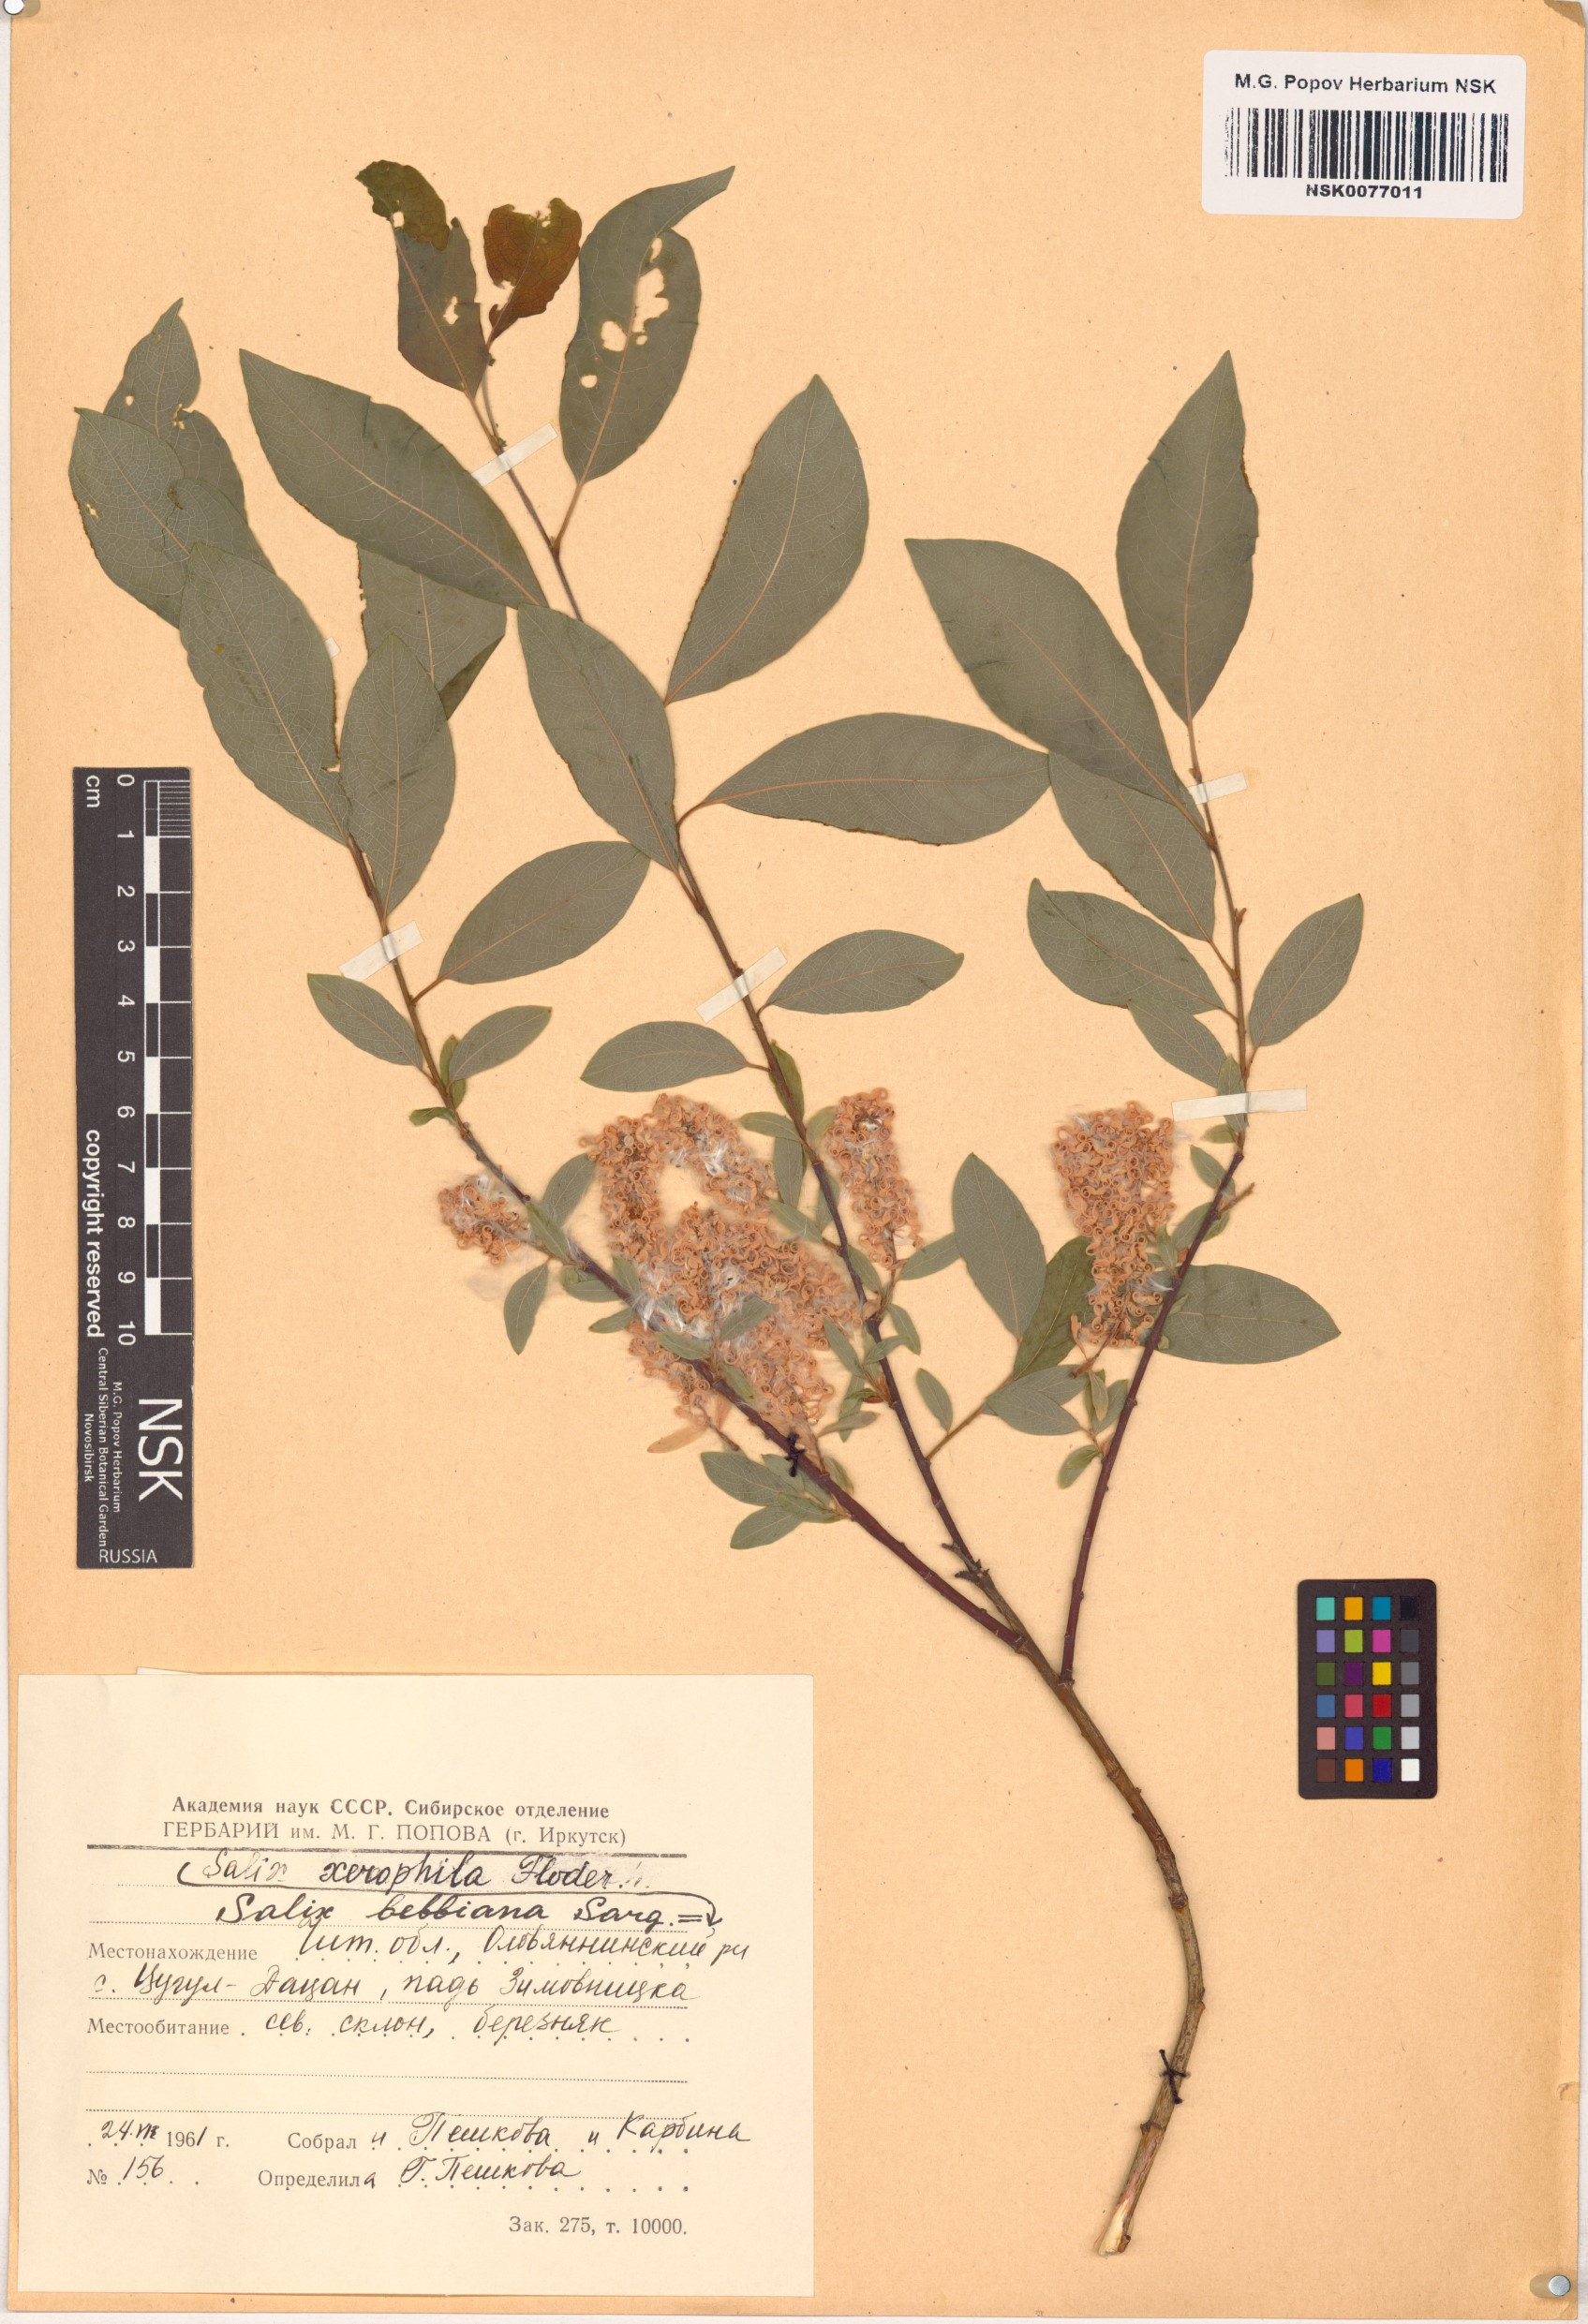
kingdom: Plantae
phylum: Tracheophyta
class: Magnoliopsida
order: Malpighiales
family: Salicaceae
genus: Salix
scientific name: Salix bebbiana
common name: Bebb's willow
